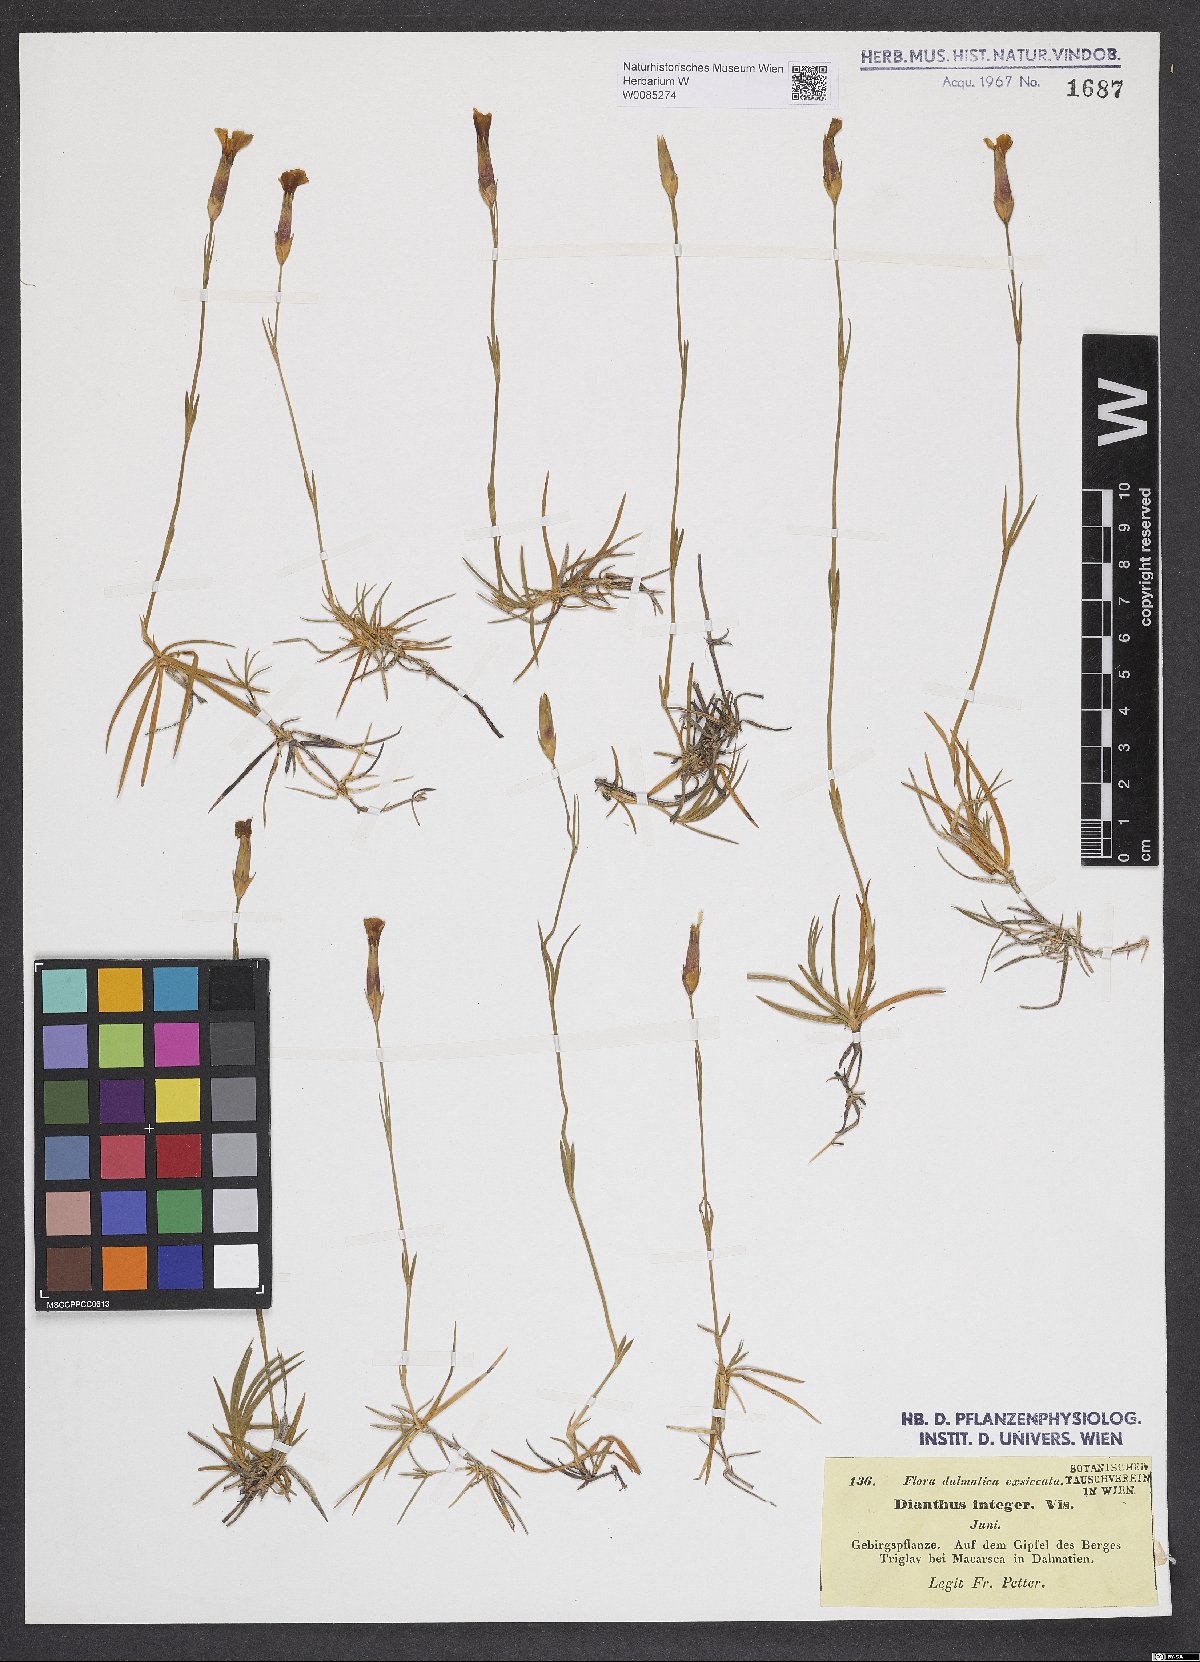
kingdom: Plantae
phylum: Tracheophyta
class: Magnoliopsida
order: Caryophyllales
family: Caryophyllaceae
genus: Dianthus
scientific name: Dianthus petraeus
